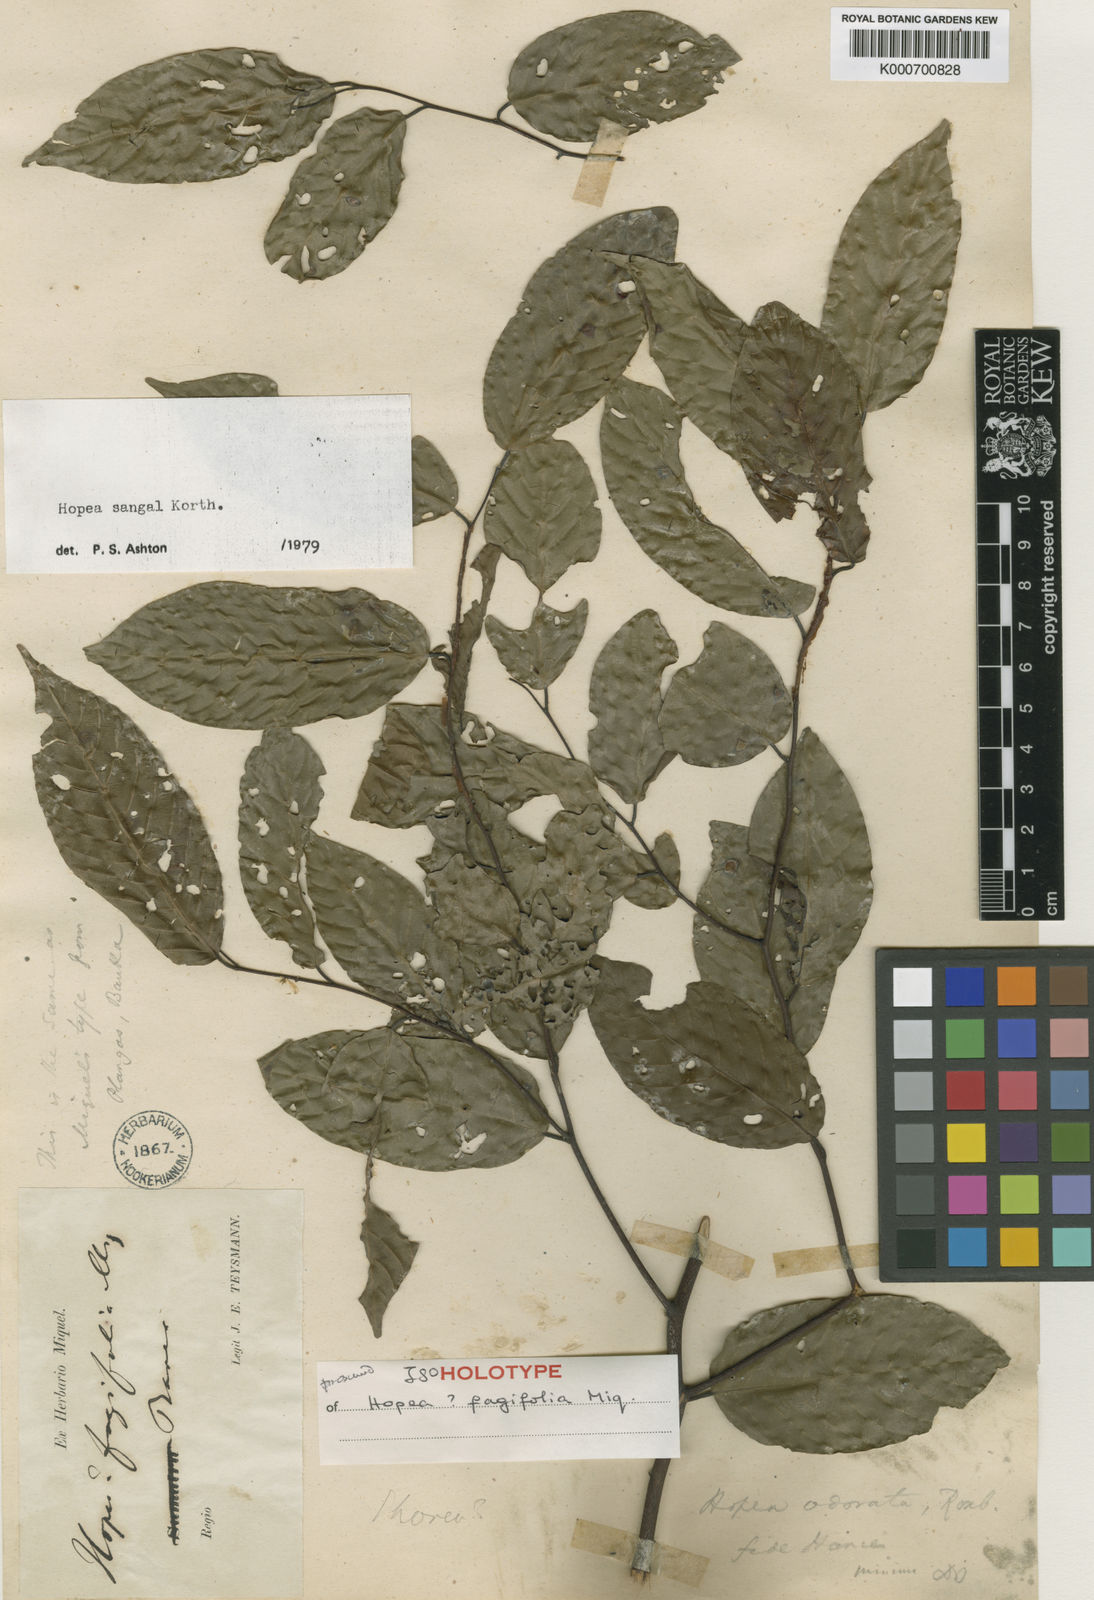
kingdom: Plantae
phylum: Tracheophyta
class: Magnoliopsida
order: Malvales
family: Dipterocarpaceae
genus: Hopea
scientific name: Hopea sangal
